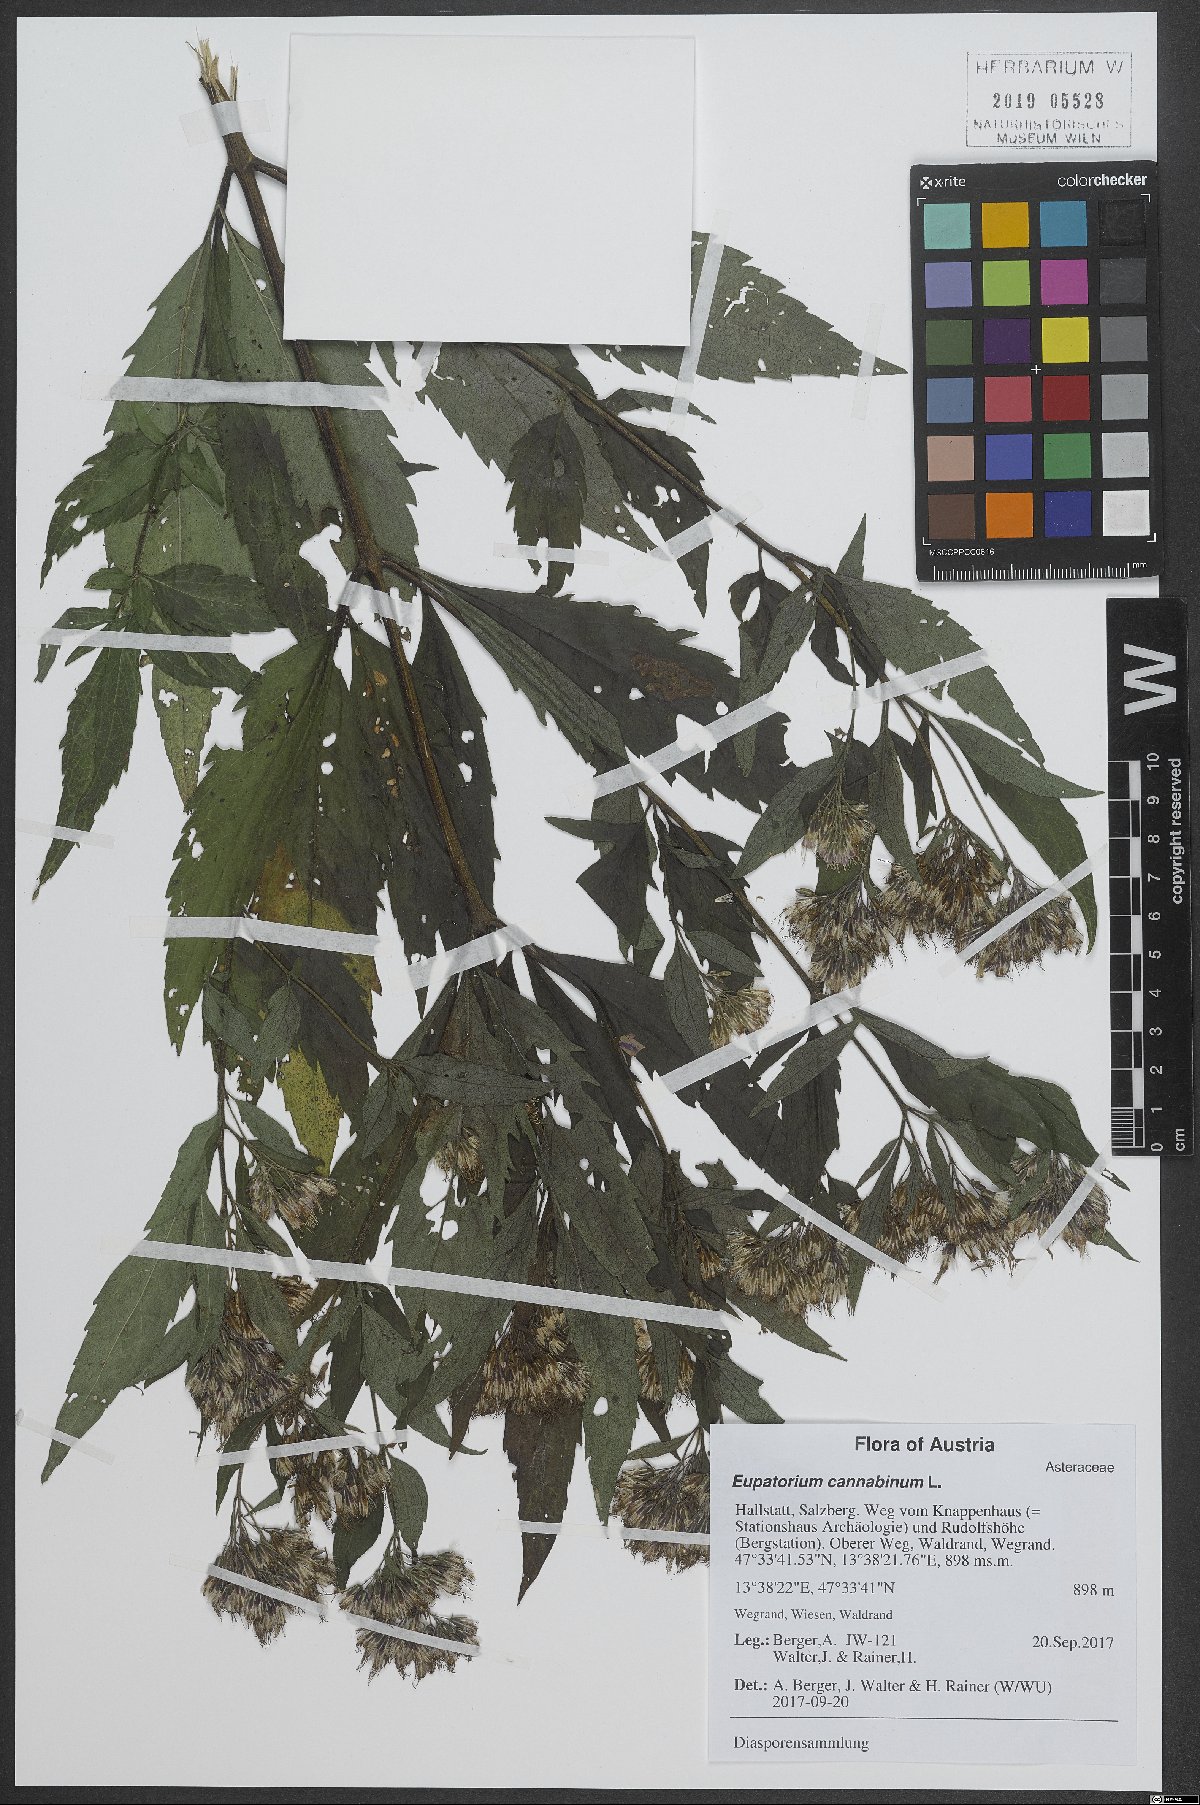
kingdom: Plantae
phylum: Tracheophyta
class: Magnoliopsida
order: Asterales
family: Asteraceae
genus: Eupatorium
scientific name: Eupatorium cannabinum
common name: Hemp-agrimony
